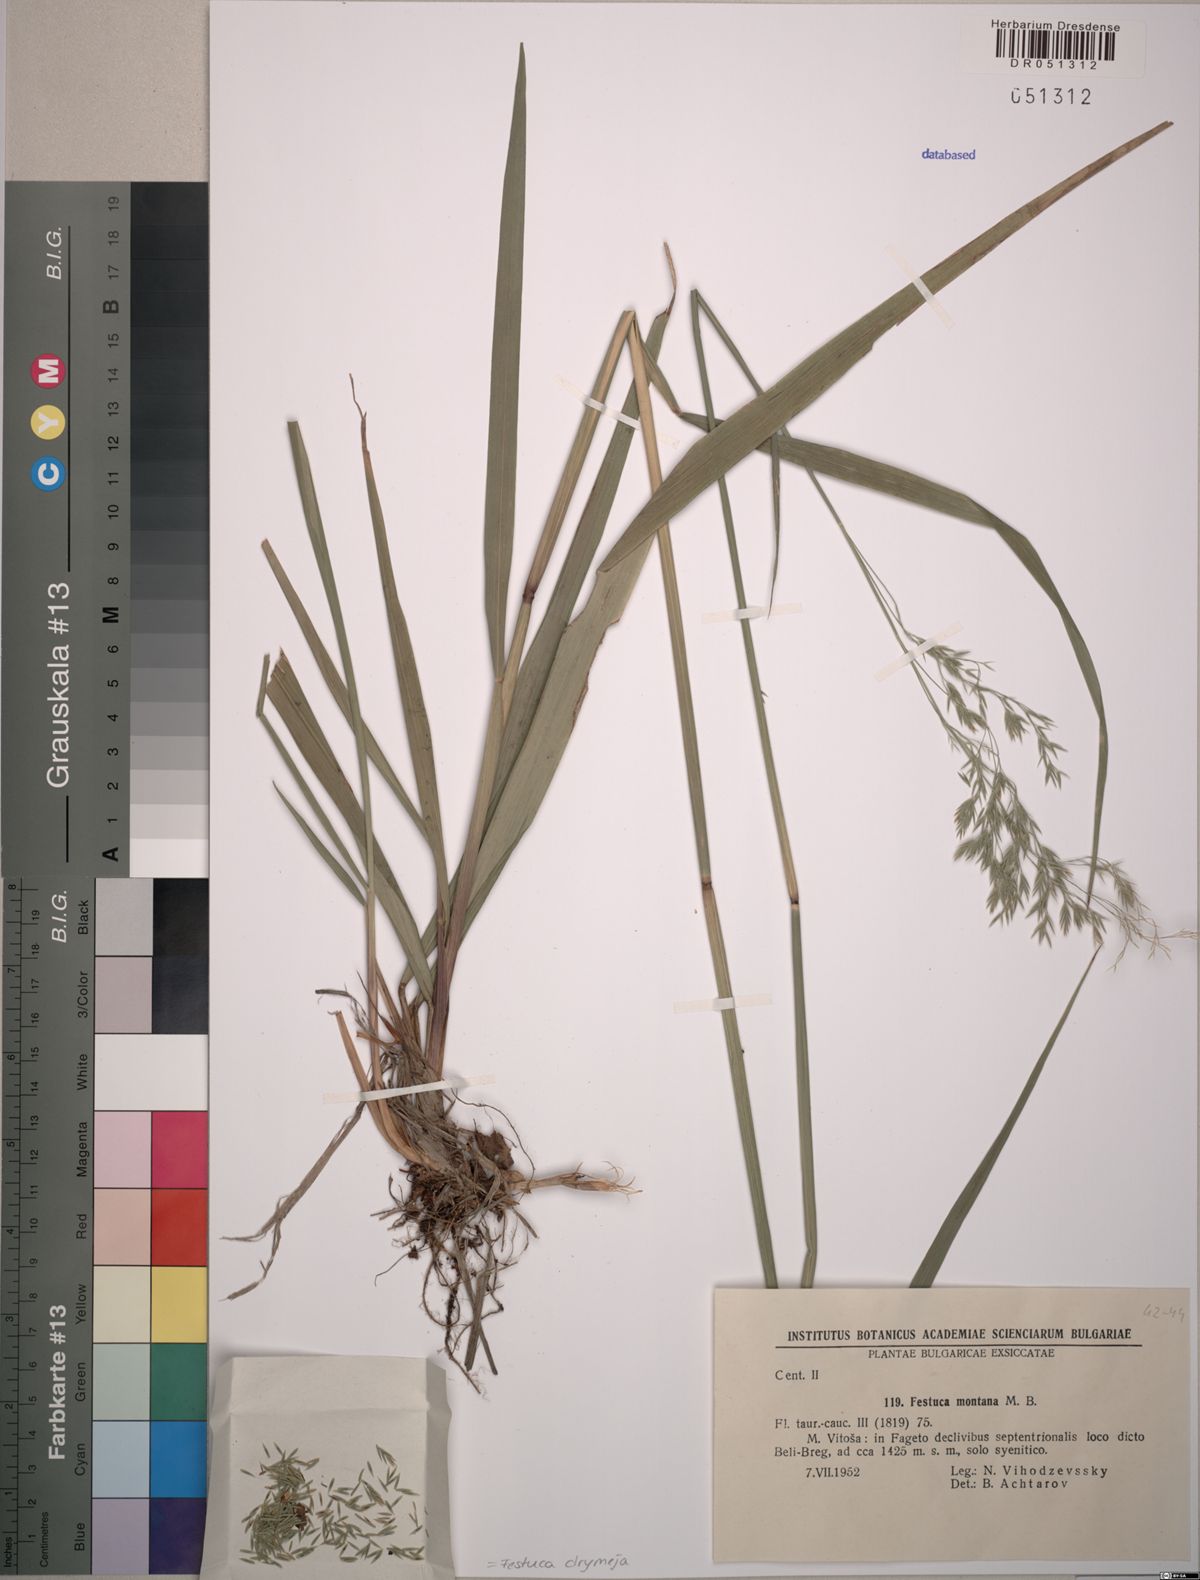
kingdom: Plantae
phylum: Tracheophyta
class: Liliopsida
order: Poales
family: Poaceae
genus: Festuca
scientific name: Festuca drymeja
